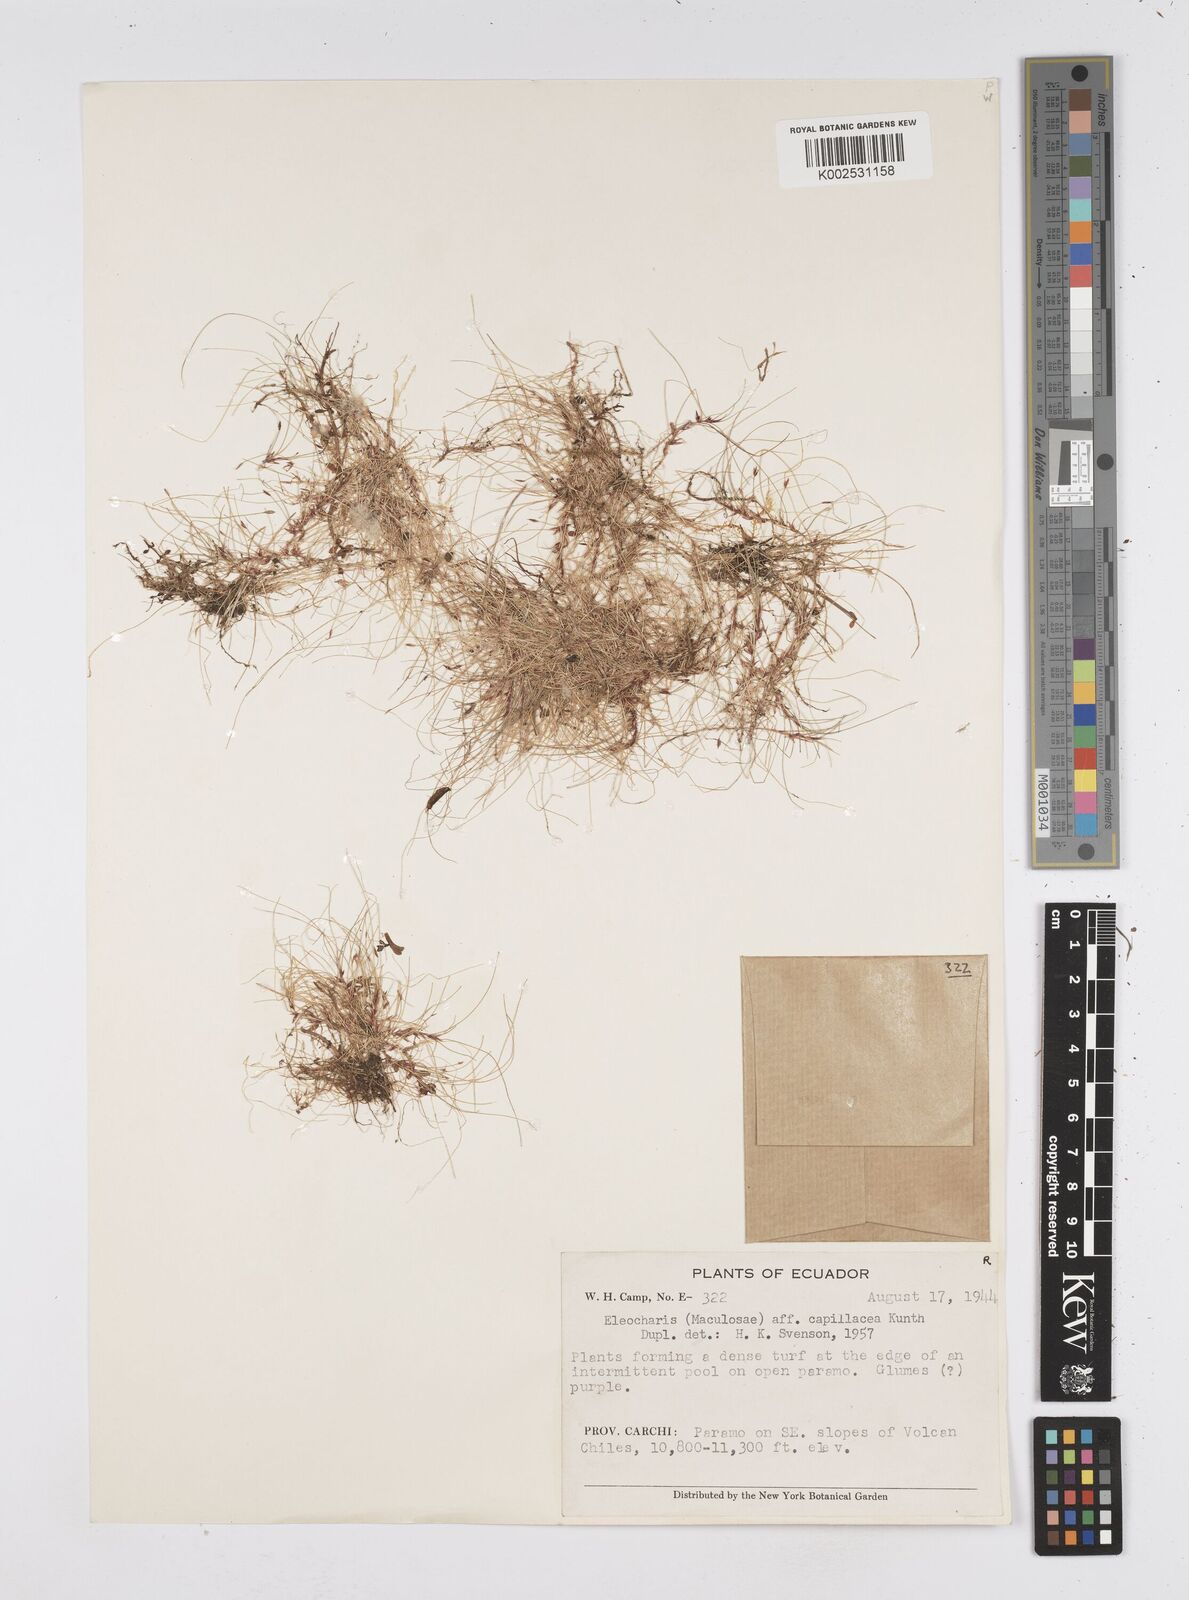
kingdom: Plantae
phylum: Tracheophyta
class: Liliopsida
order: Poales
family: Cyperaceae
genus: Eleocharis
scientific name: Eleocharis capillacea
